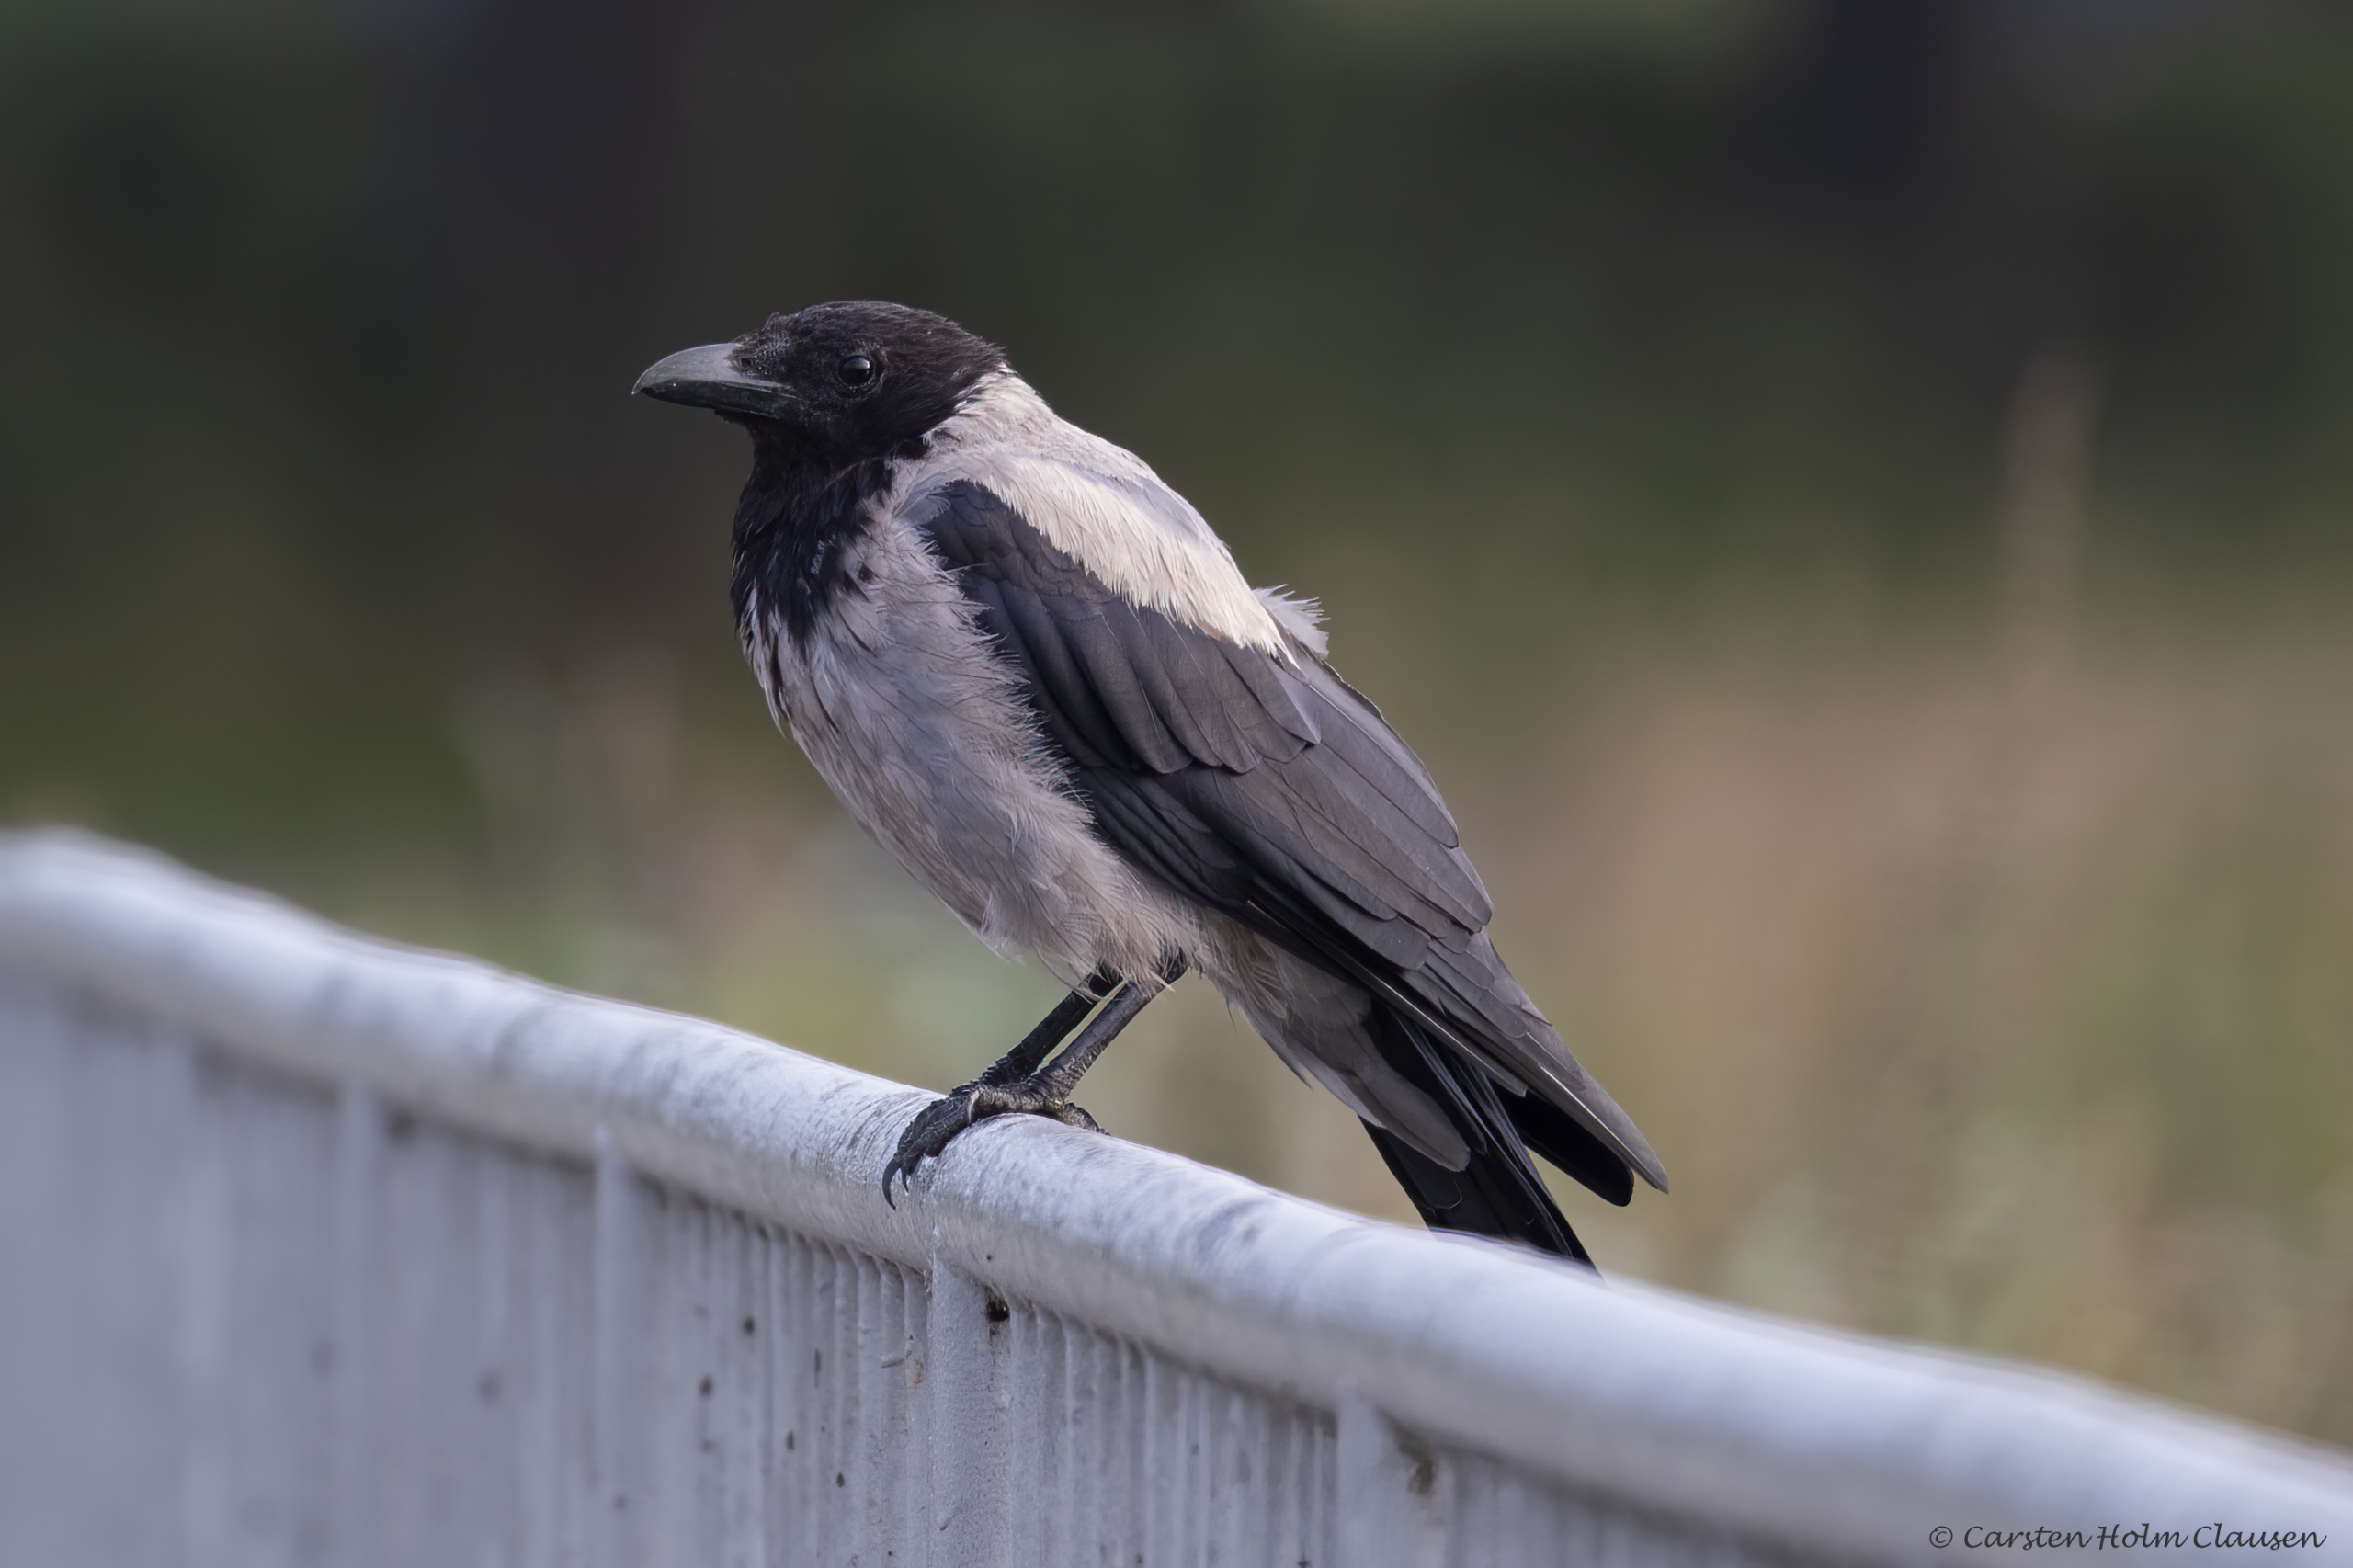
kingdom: Animalia
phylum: Chordata
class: Aves
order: Passeriformes
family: Corvidae
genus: Corvus
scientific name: Corvus cornix
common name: Gråkrage
